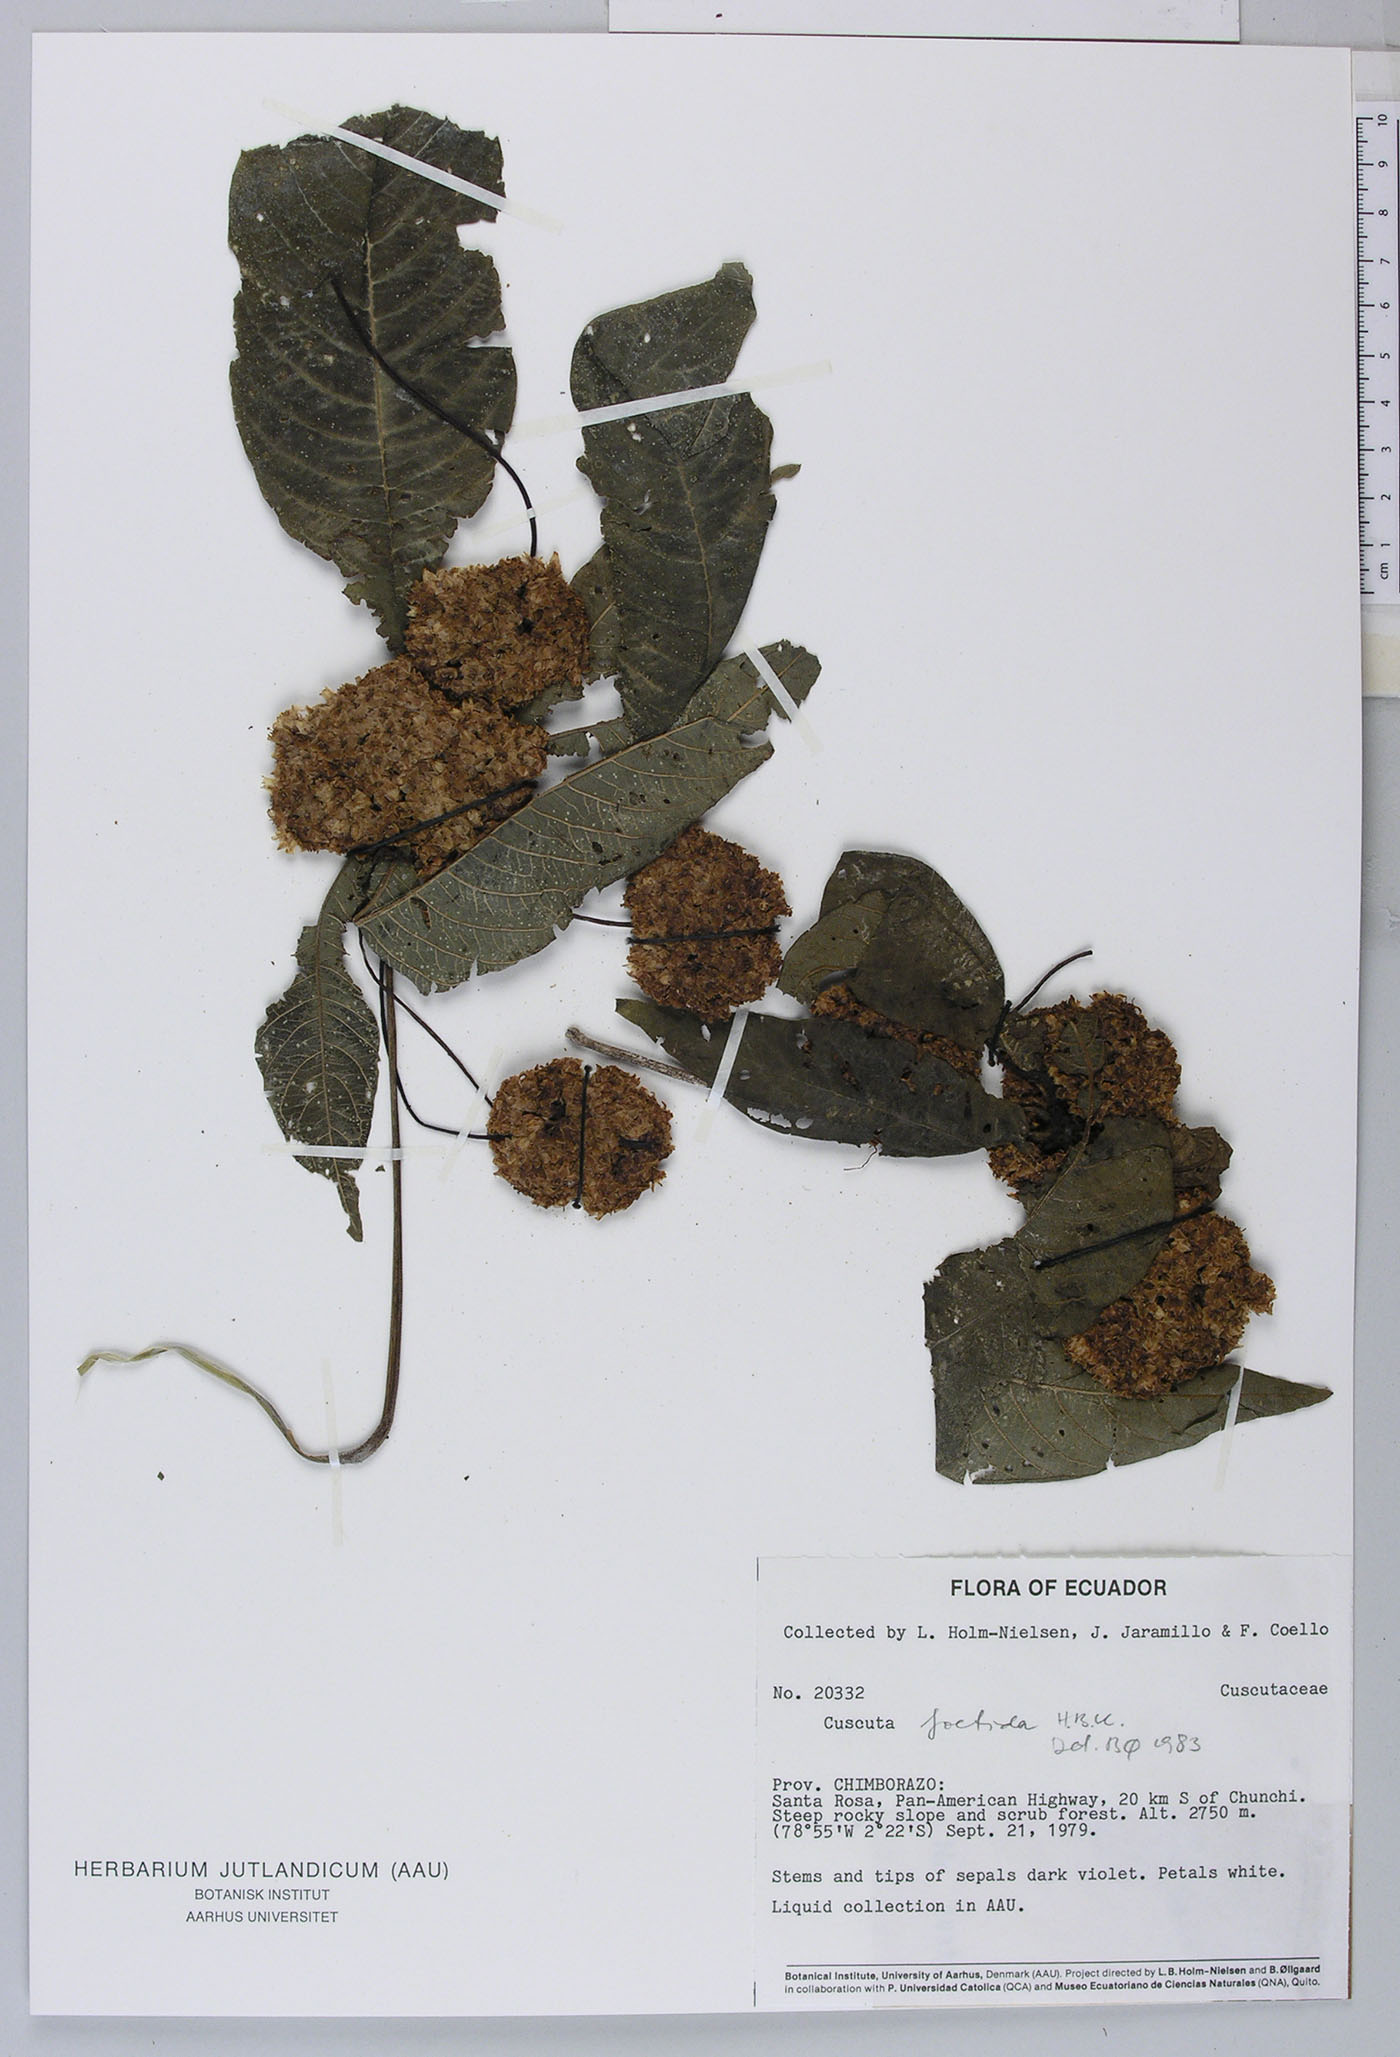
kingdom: Plantae
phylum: Tracheophyta
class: Liliopsida
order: Liliales
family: Alstroemeriaceae
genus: Bomarea
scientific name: Bomarea
